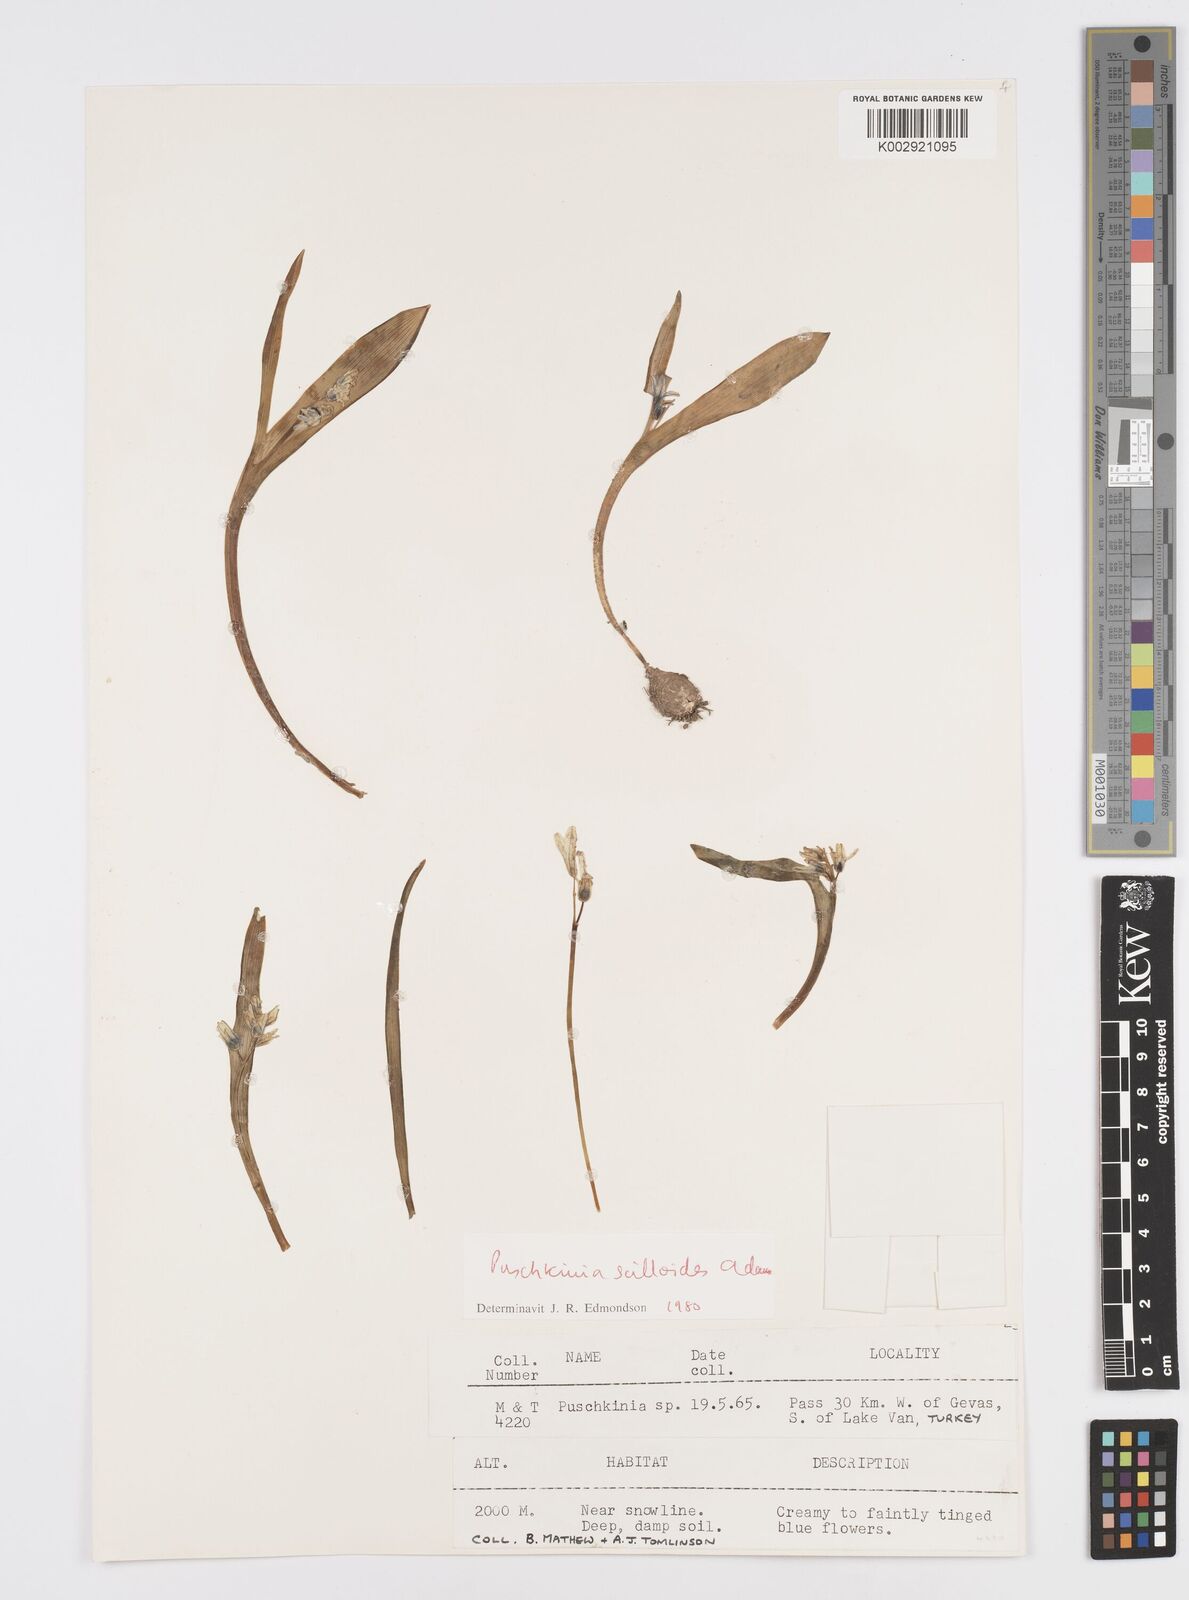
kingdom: Plantae
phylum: Tracheophyta
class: Liliopsida
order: Asparagales
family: Asparagaceae
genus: Puschkinia
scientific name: Puschkinia scilloides
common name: Striped squill
